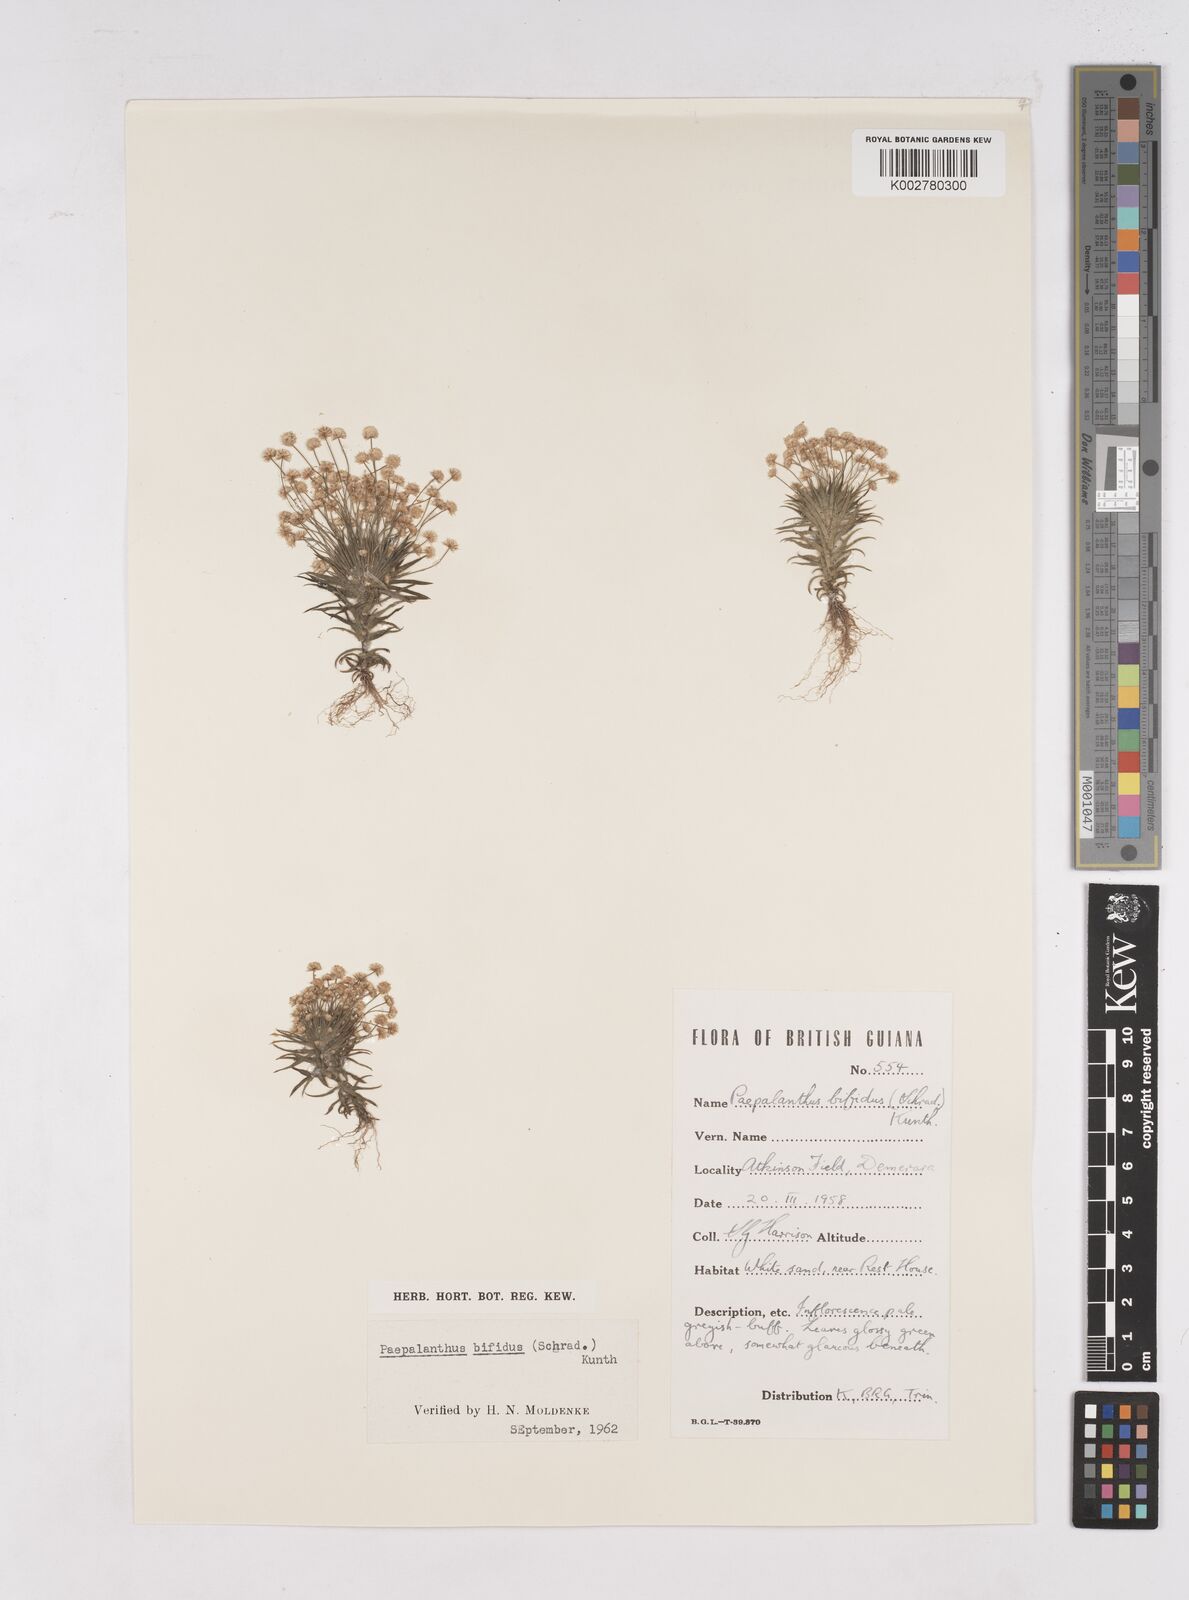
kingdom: Plantae
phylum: Tracheophyta
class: Liliopsida
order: Poales
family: Eriocaulaceae
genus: Paepalanthus
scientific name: Paepalanthus bifidus
